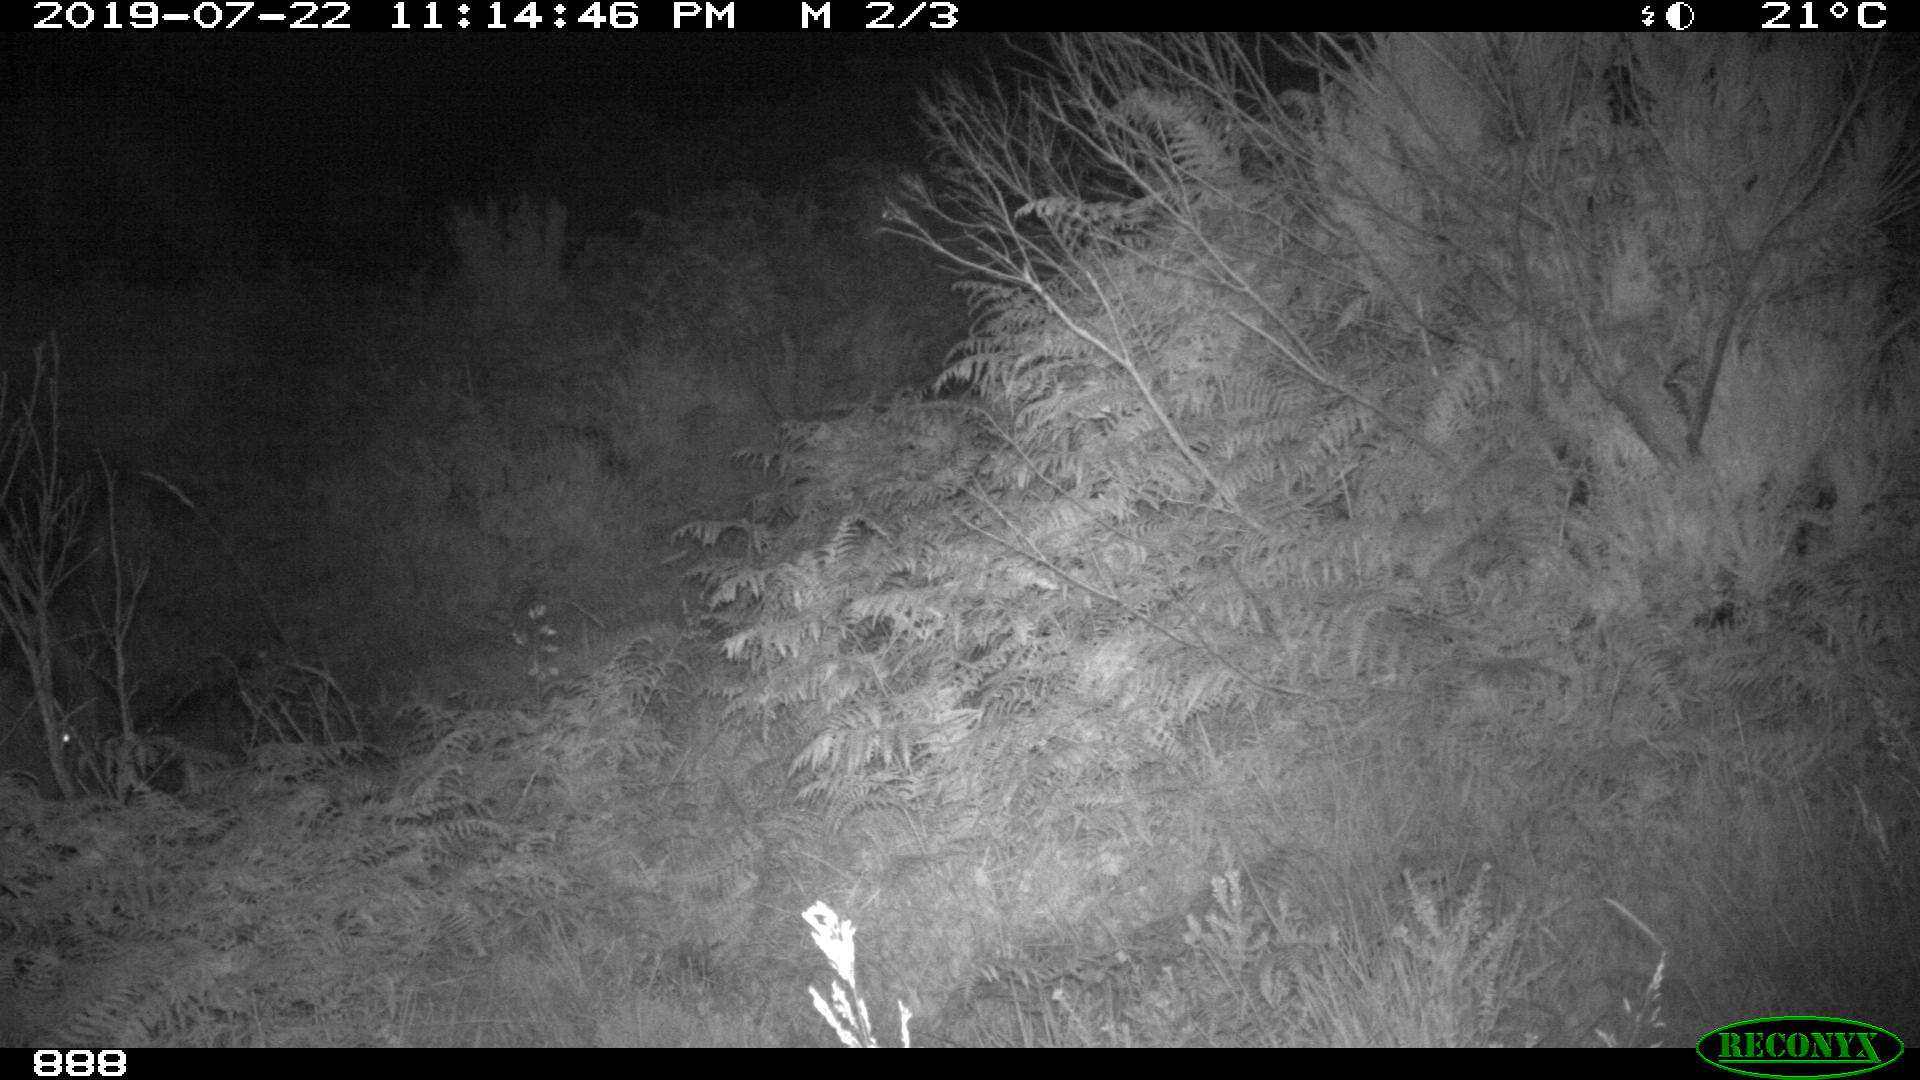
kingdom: Animalia
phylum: Chordata
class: Mammalia
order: Perissodactyla
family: Equidae
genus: Equus
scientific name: Equus caballus
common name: Horse
